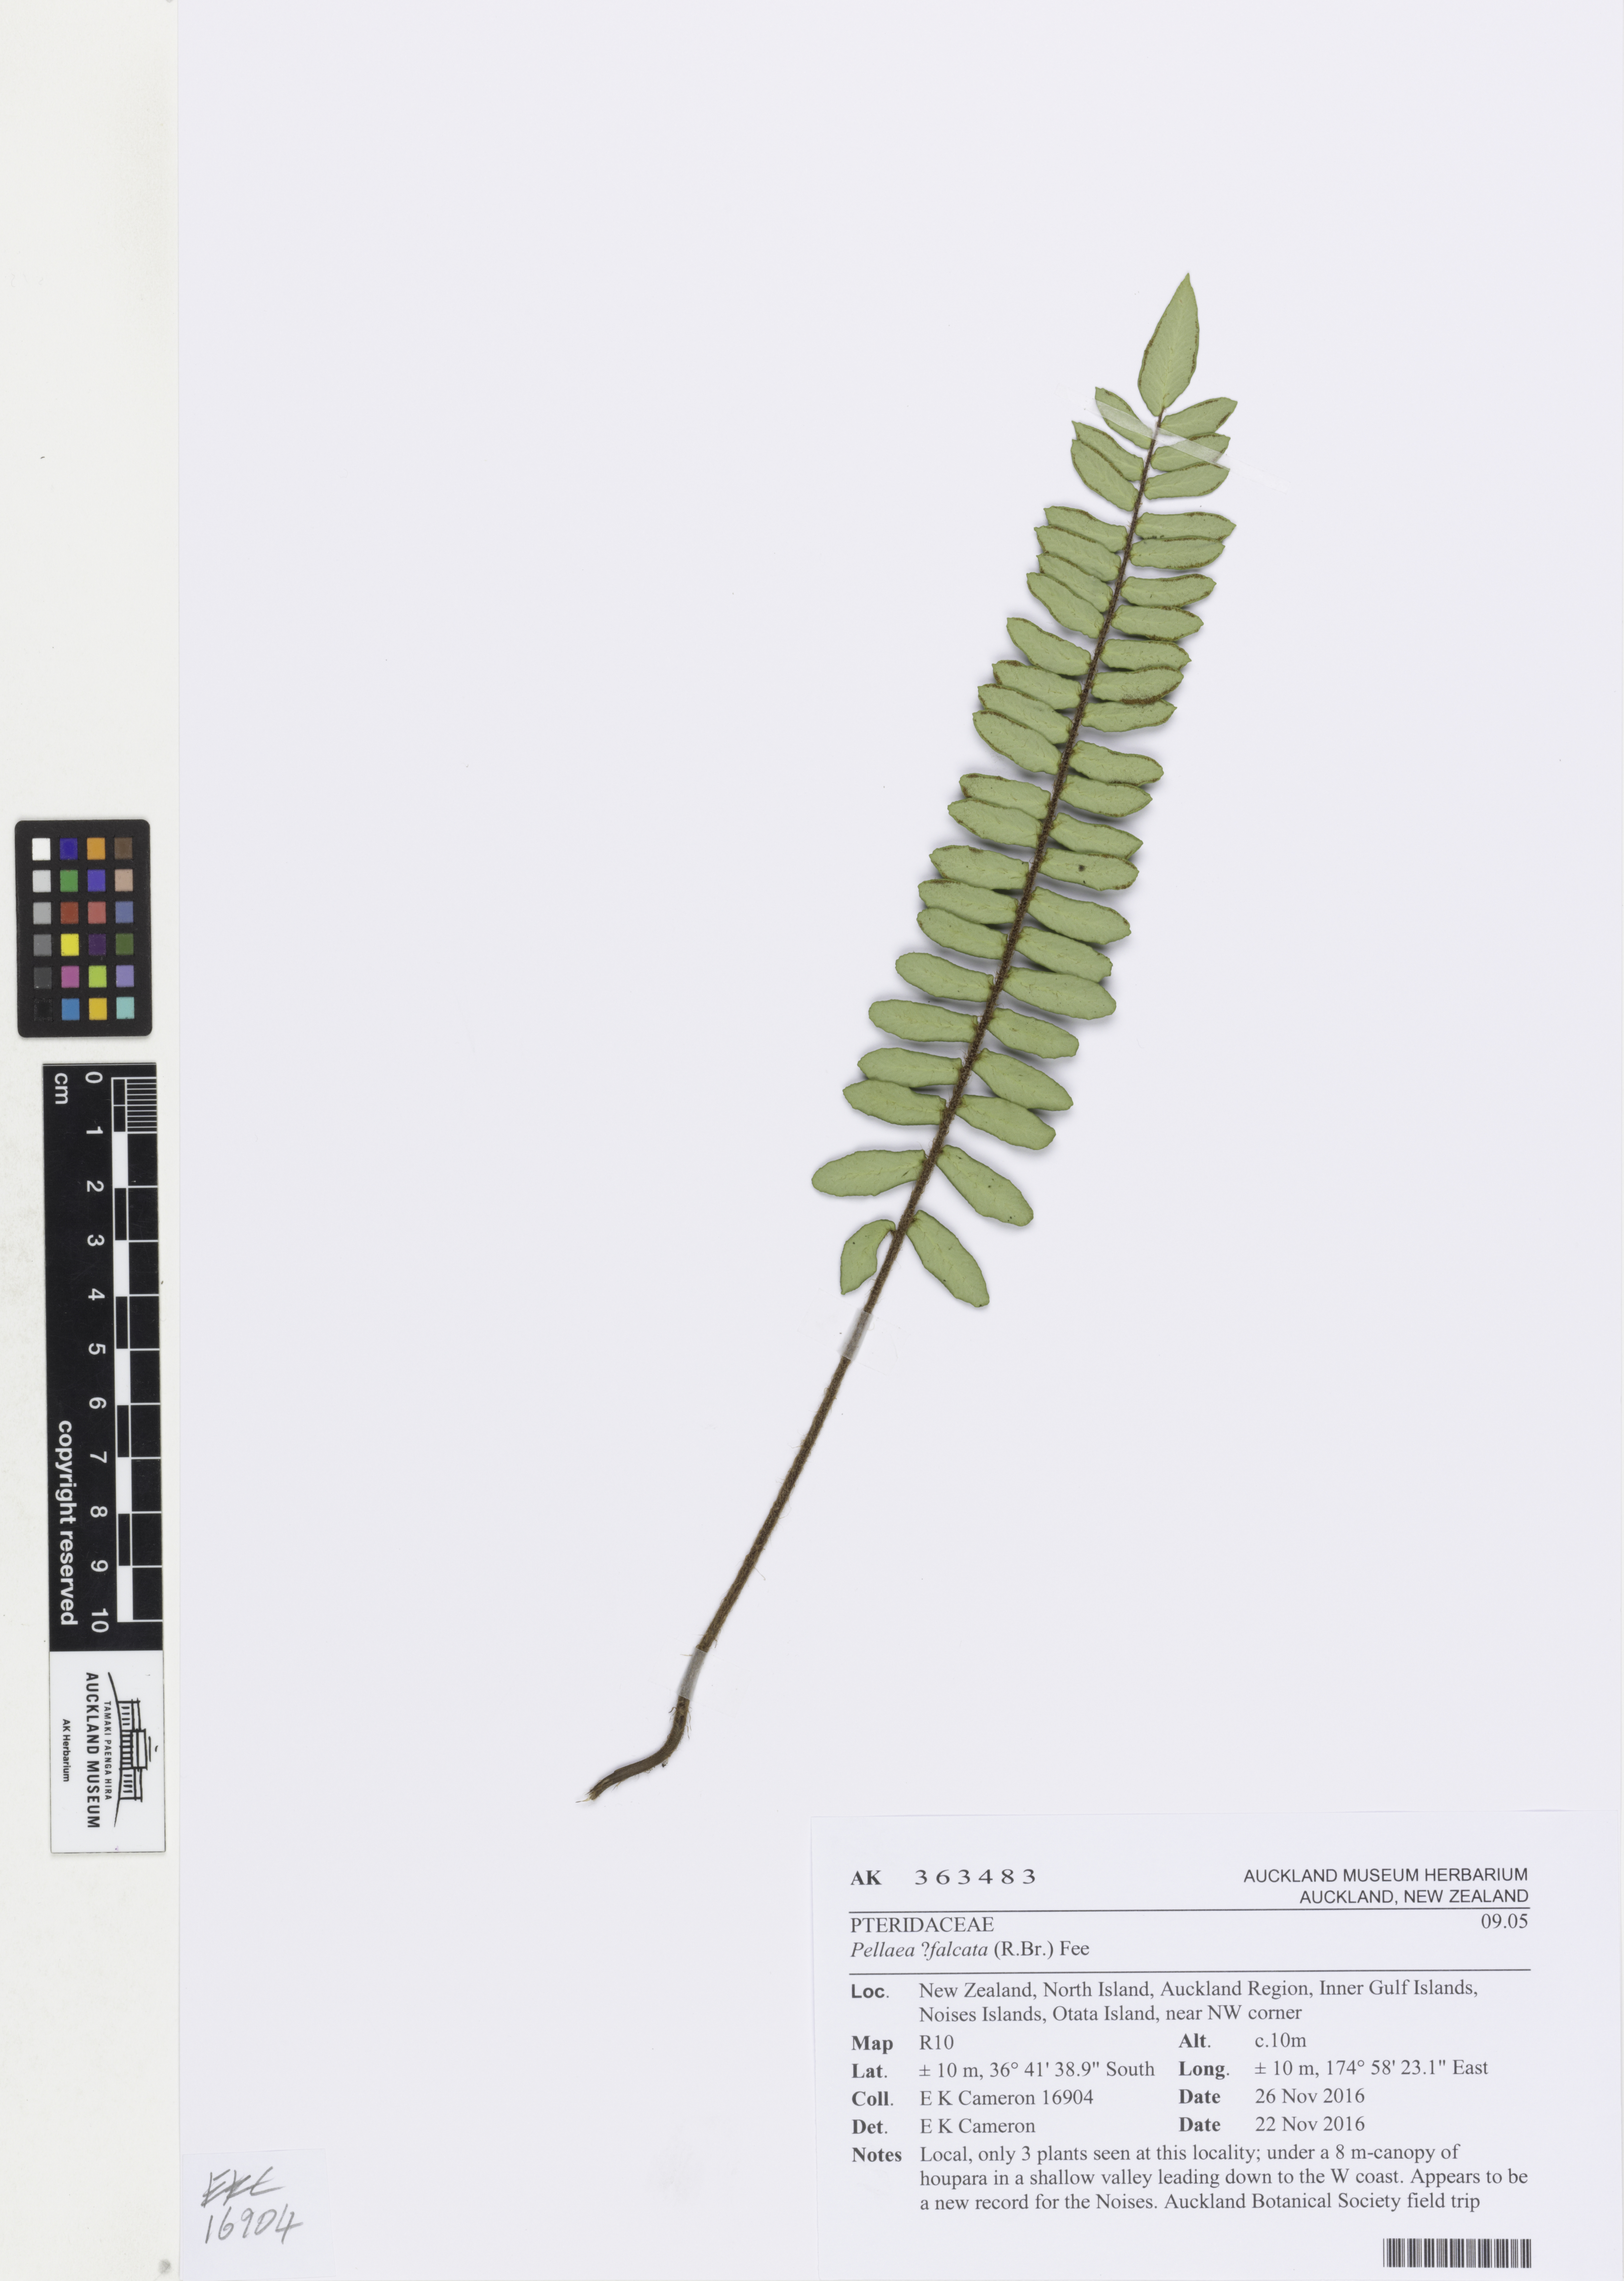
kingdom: Plantae
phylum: Tracheophyta
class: Polypodiopsida
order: Polypodiales
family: Pteridaceae
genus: Pellaea
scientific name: Pellaea falcata
